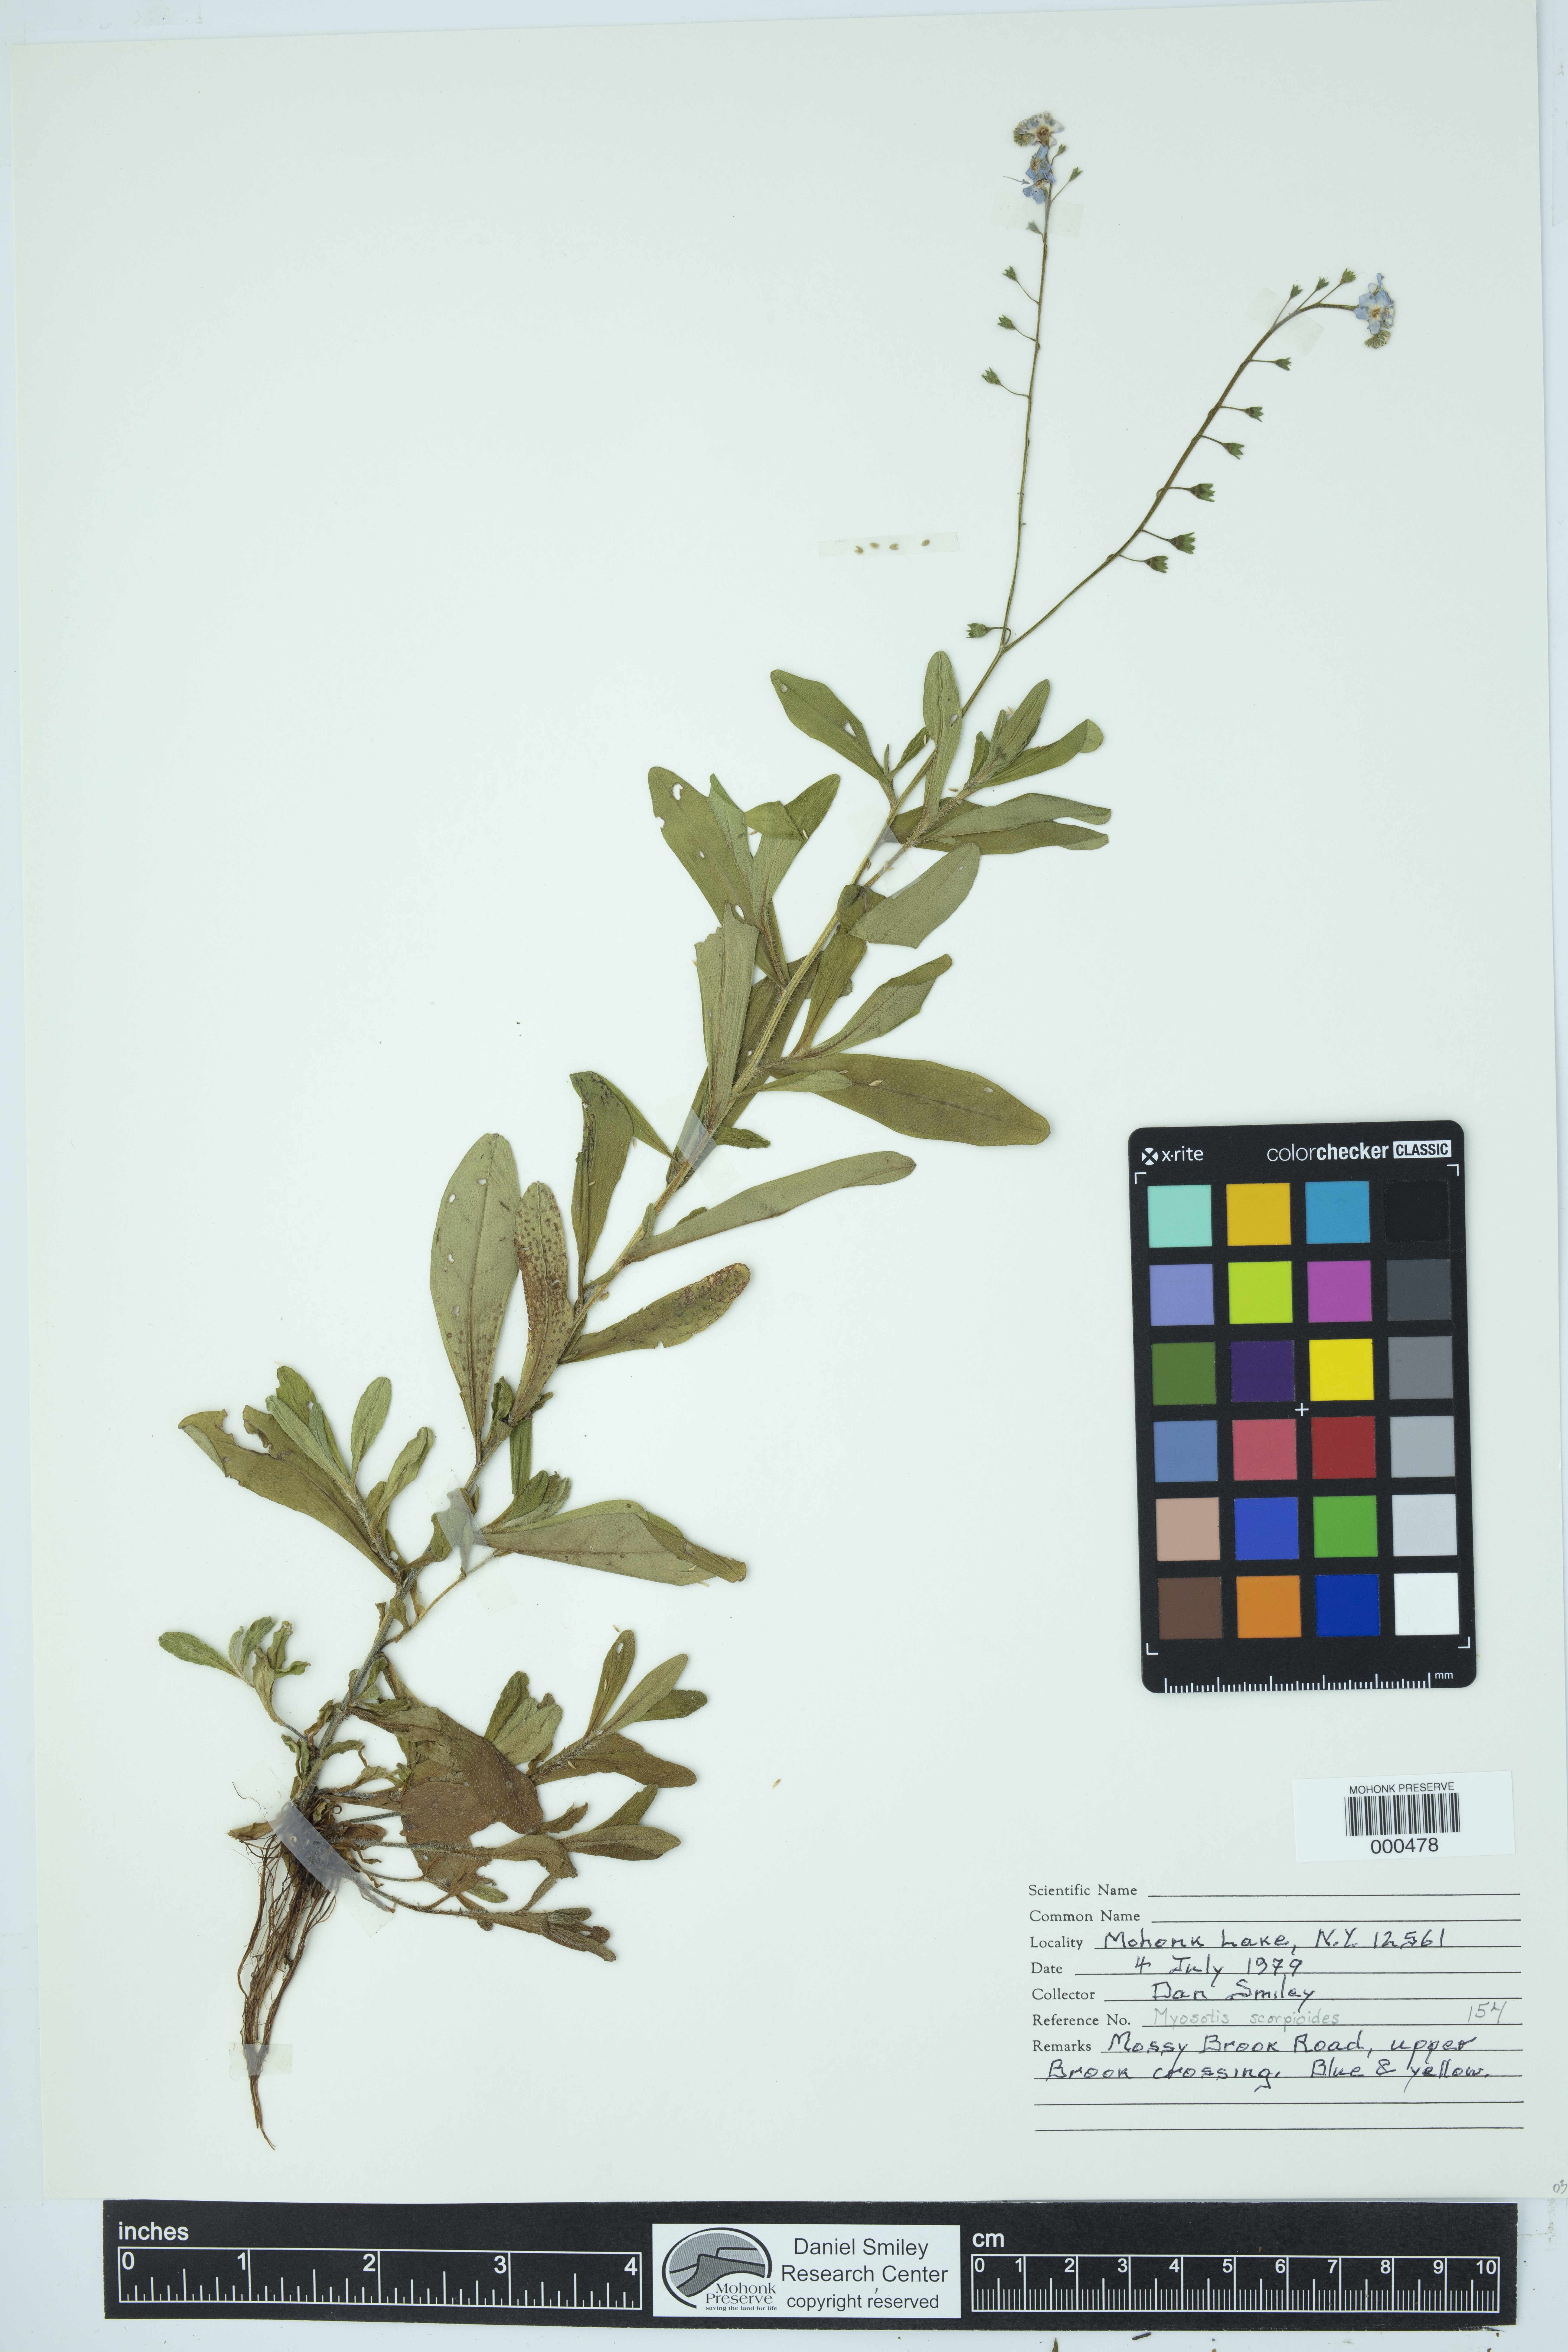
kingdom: Plantae
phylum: Tracheophyta
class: Magnoliopsida
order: Boraginales
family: Boraginaceae
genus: Myosotis
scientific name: Myosotis scorpioides
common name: Water forget-me-not
